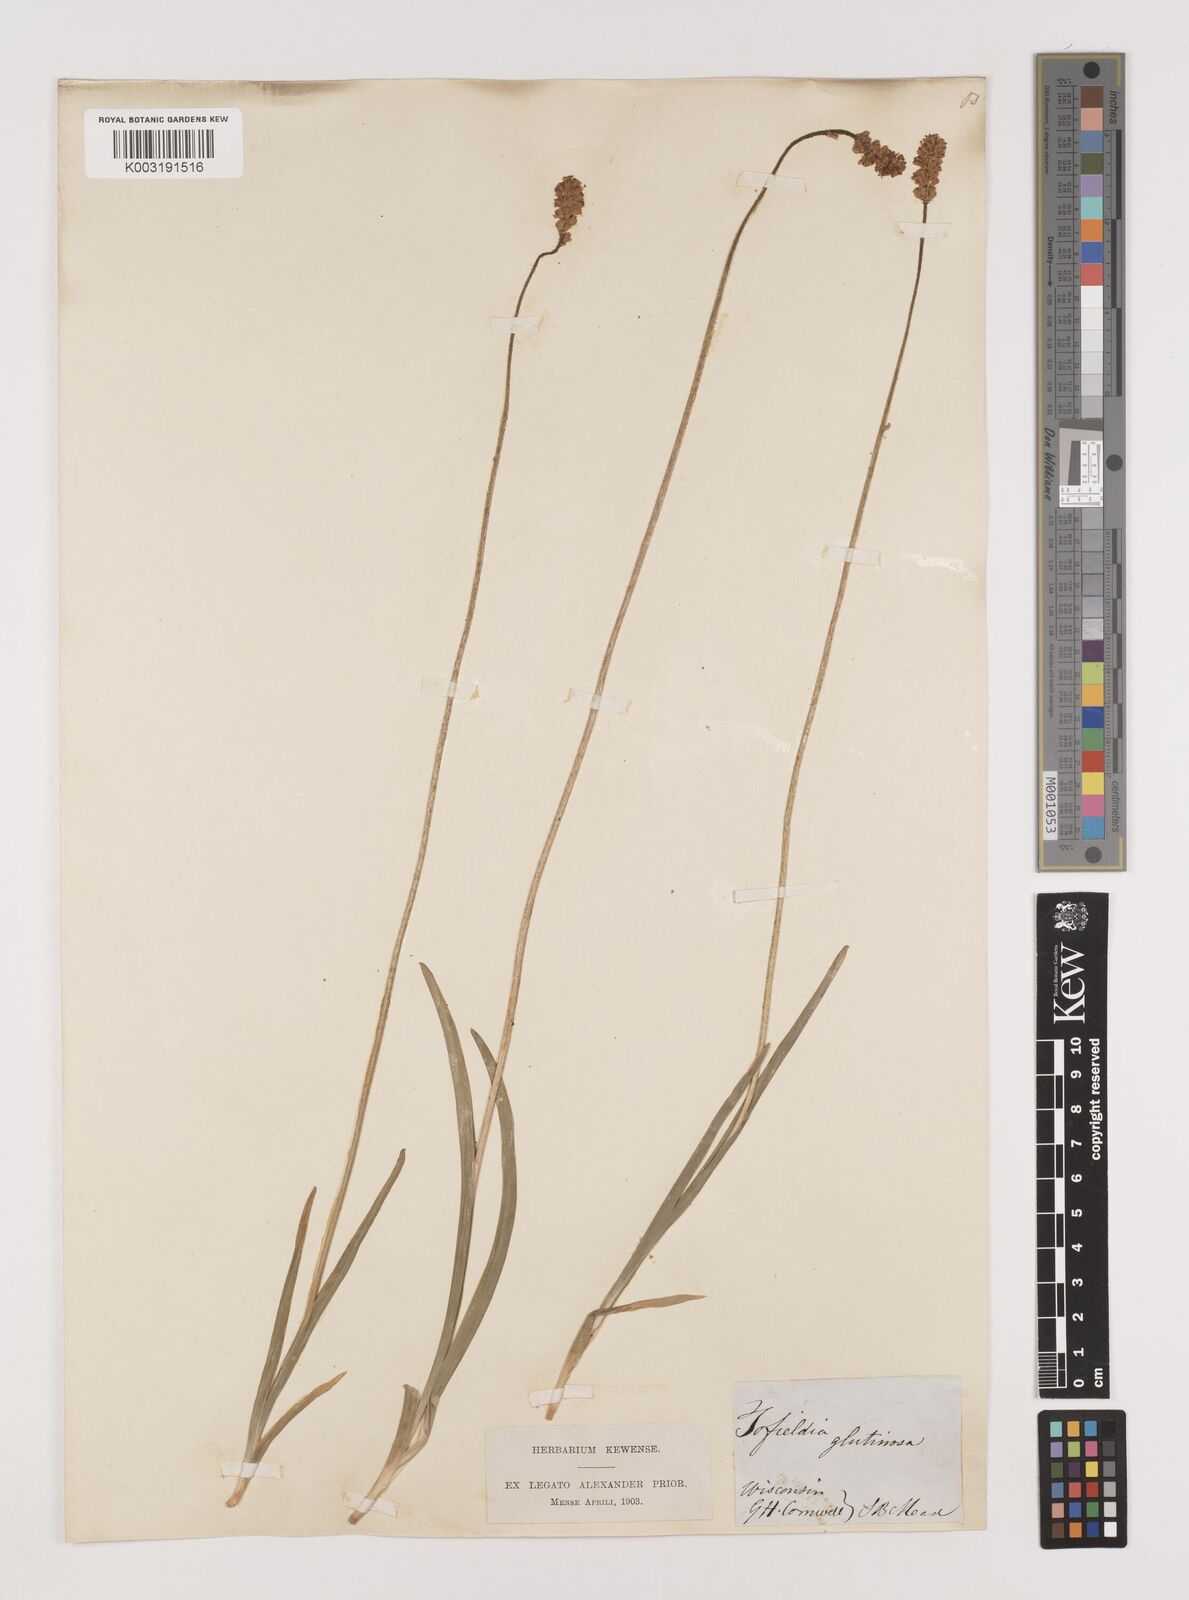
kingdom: Plantae
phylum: Tracheophyta
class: Liliopsida
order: Alismatales
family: Tofieldiaceae
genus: Triantha
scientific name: Triantha glutinosa
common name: Glutinous tofieldia
